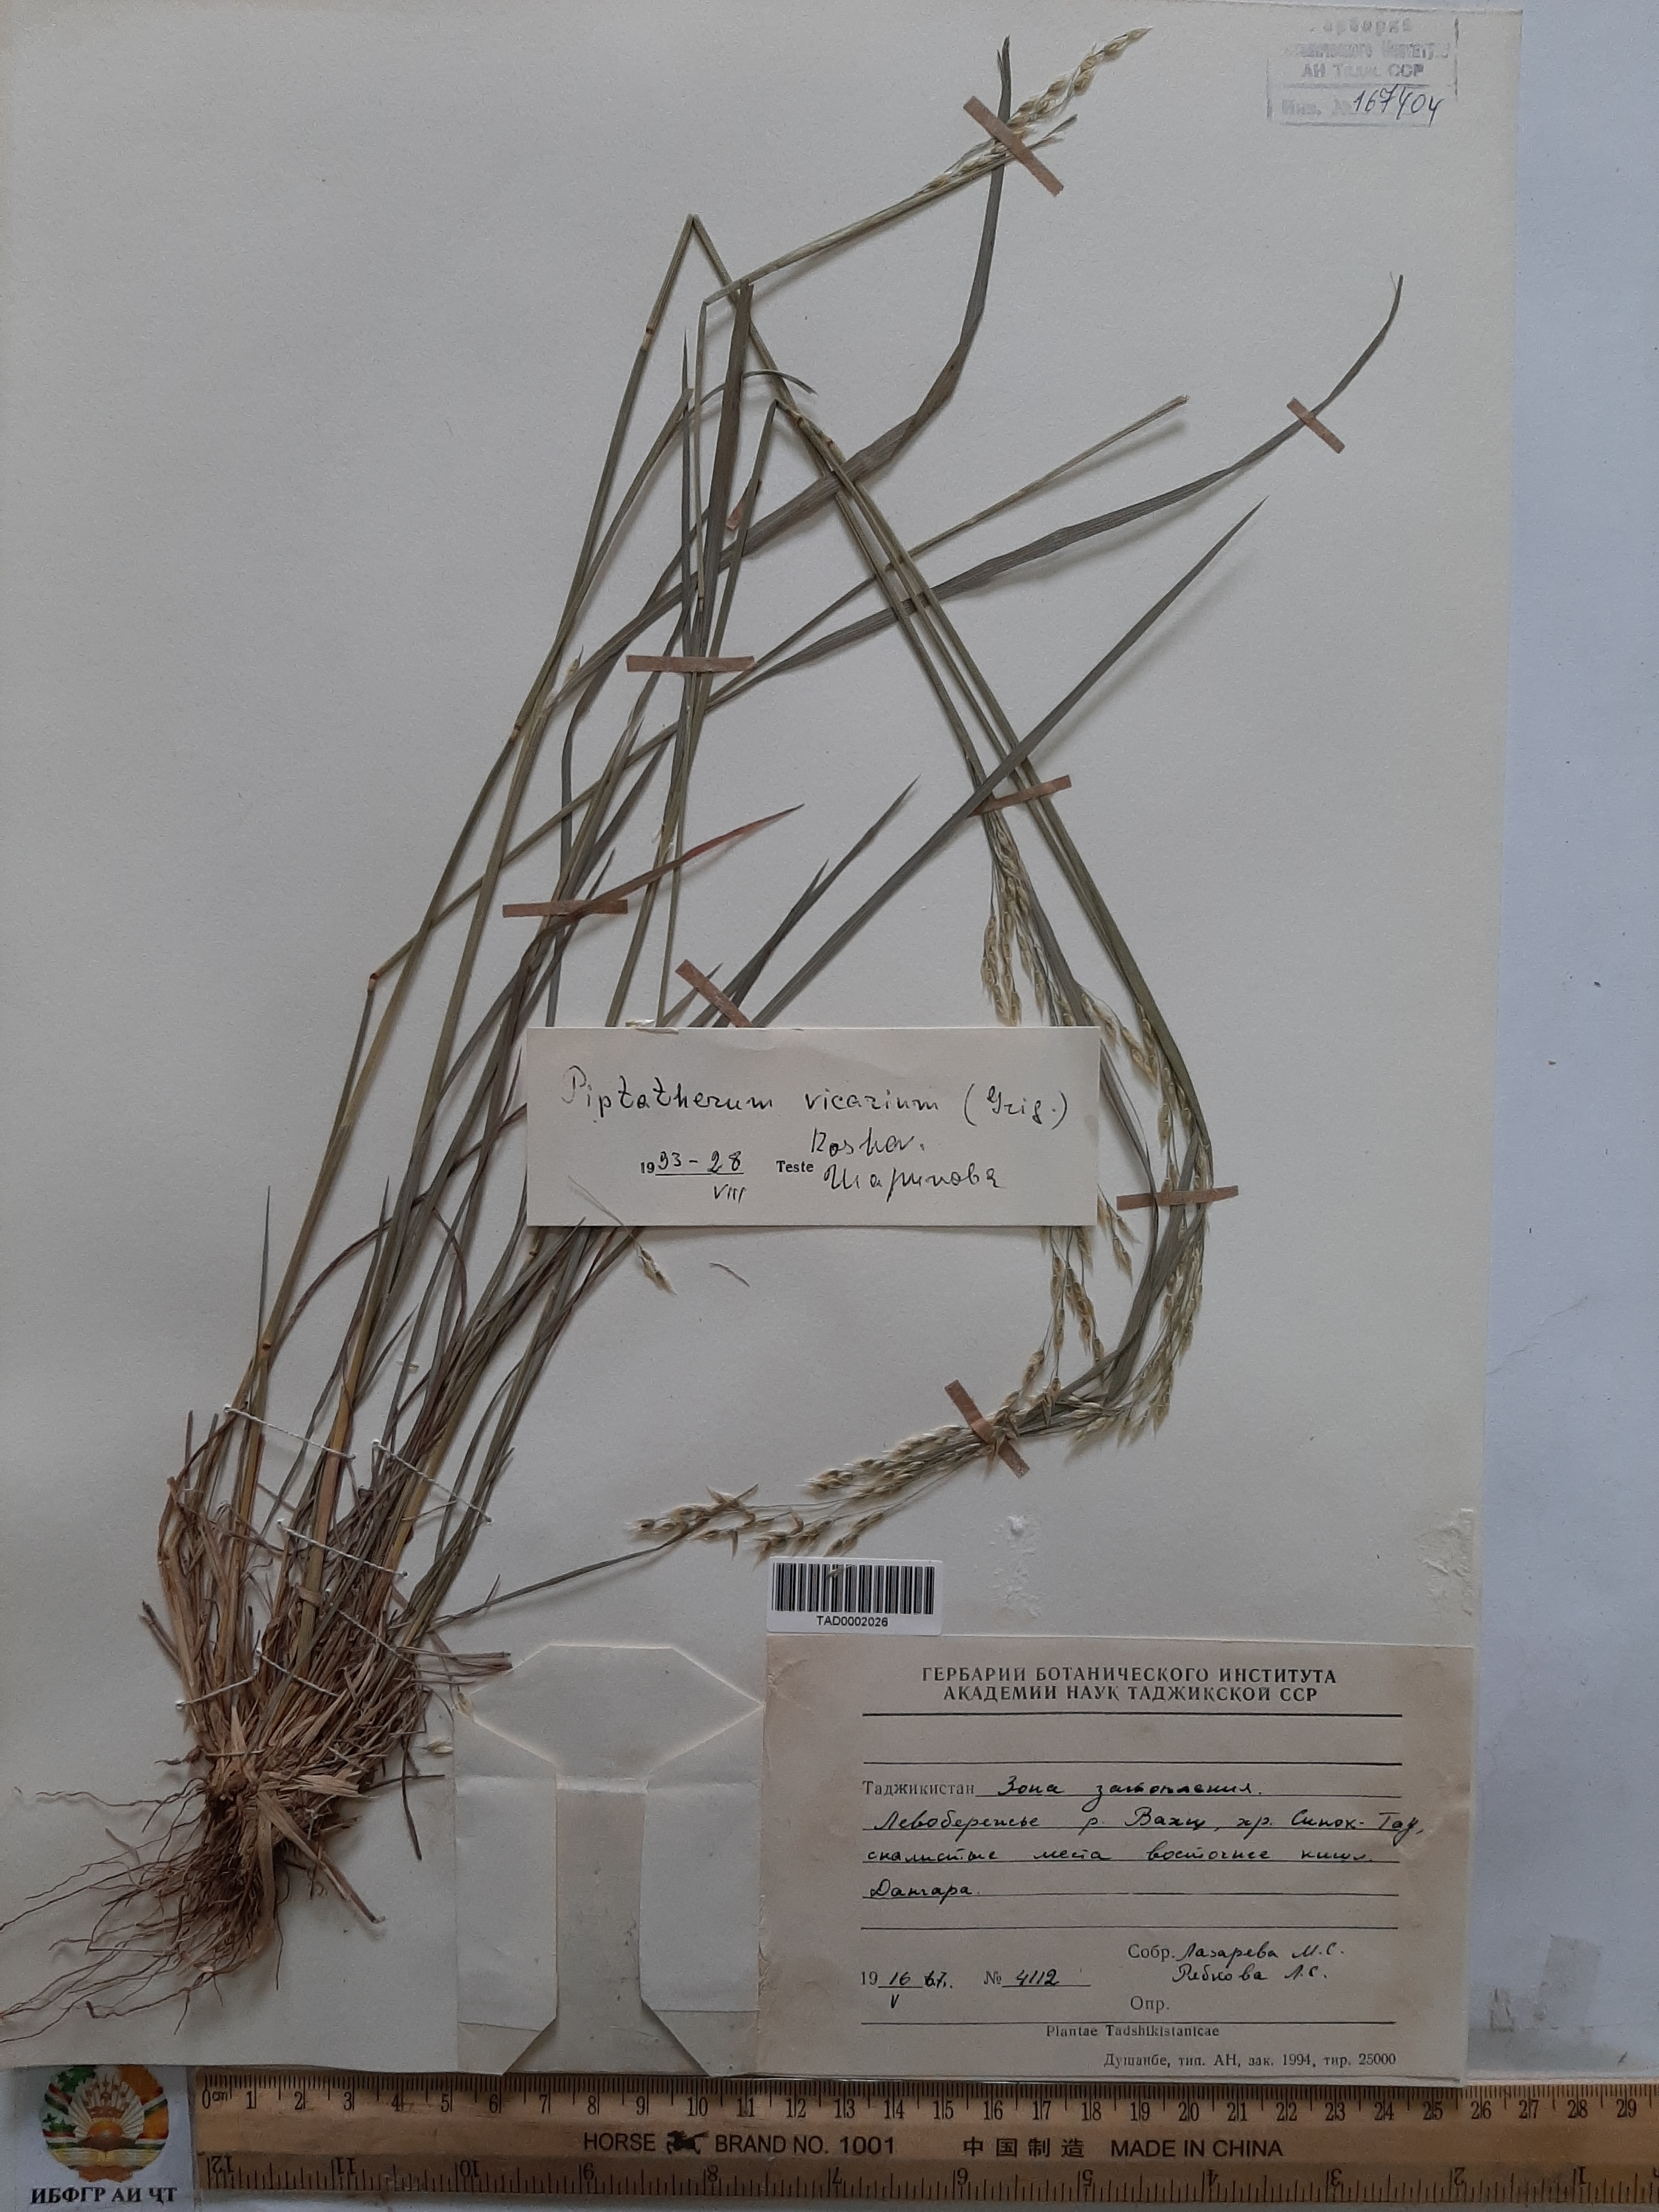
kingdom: Plantae
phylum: Tracheophyta
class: Liliopsida
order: Poales
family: Poaceae
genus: Piptatherum
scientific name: Piptatherum microcarpum
